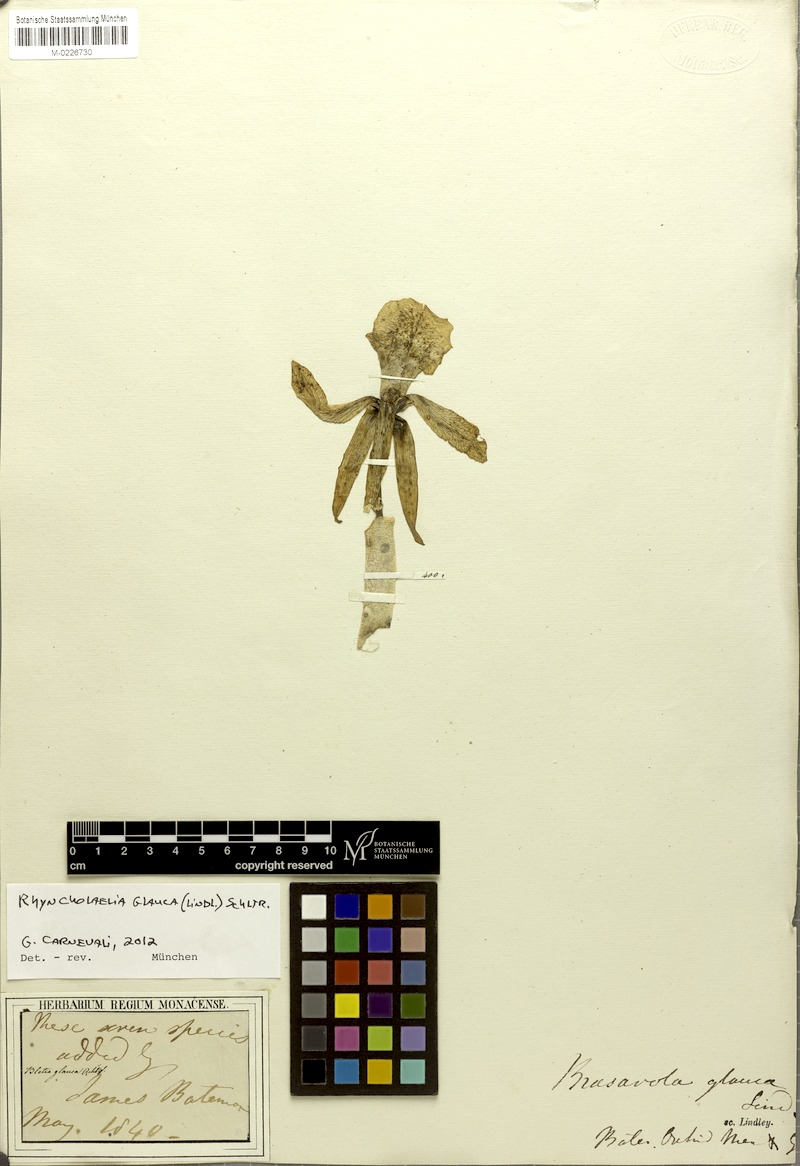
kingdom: Plantae
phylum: Tracheophyta
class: Liliopsida
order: Asparagales
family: Orchidaceae
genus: Rhyncholaelia
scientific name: Rhyncholaelia glauca
